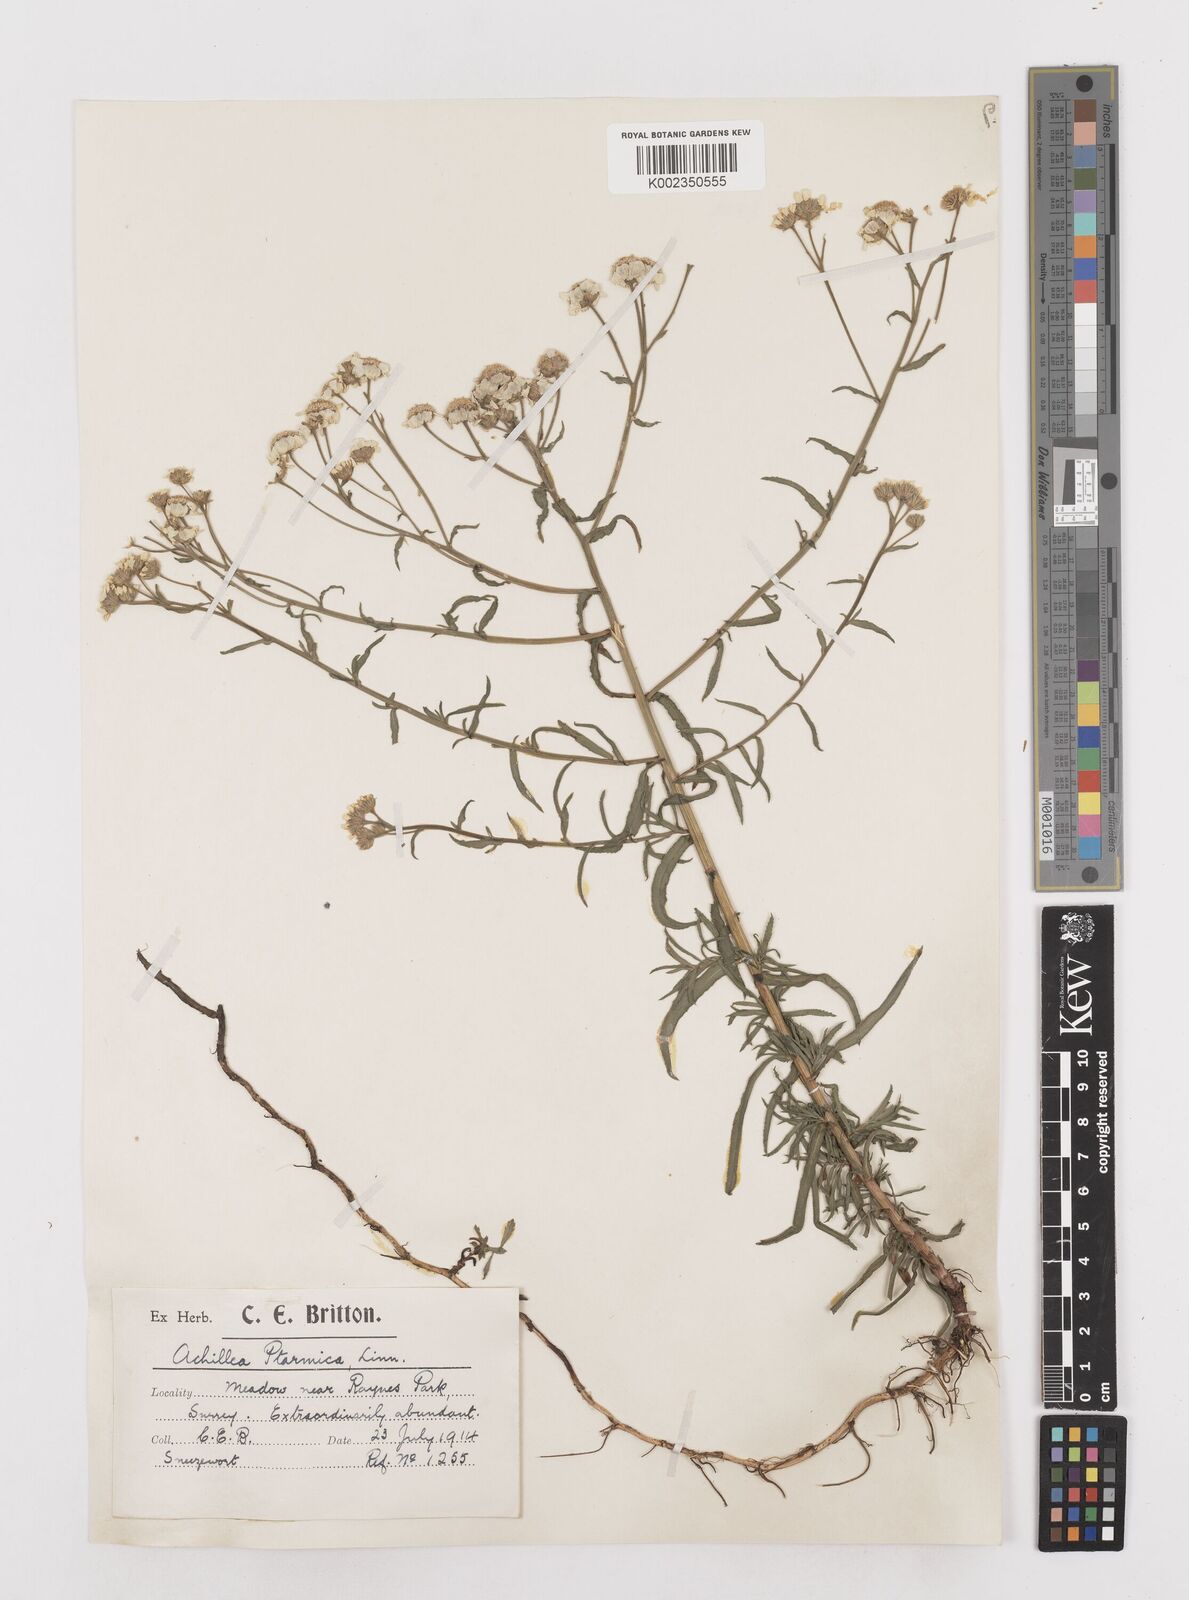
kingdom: Plantae
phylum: Tracheophyta
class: Magnoliopsida
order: Asterales
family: Asteraceae
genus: Achillea
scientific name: Achillea ptarmica
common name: Sneezeweed
